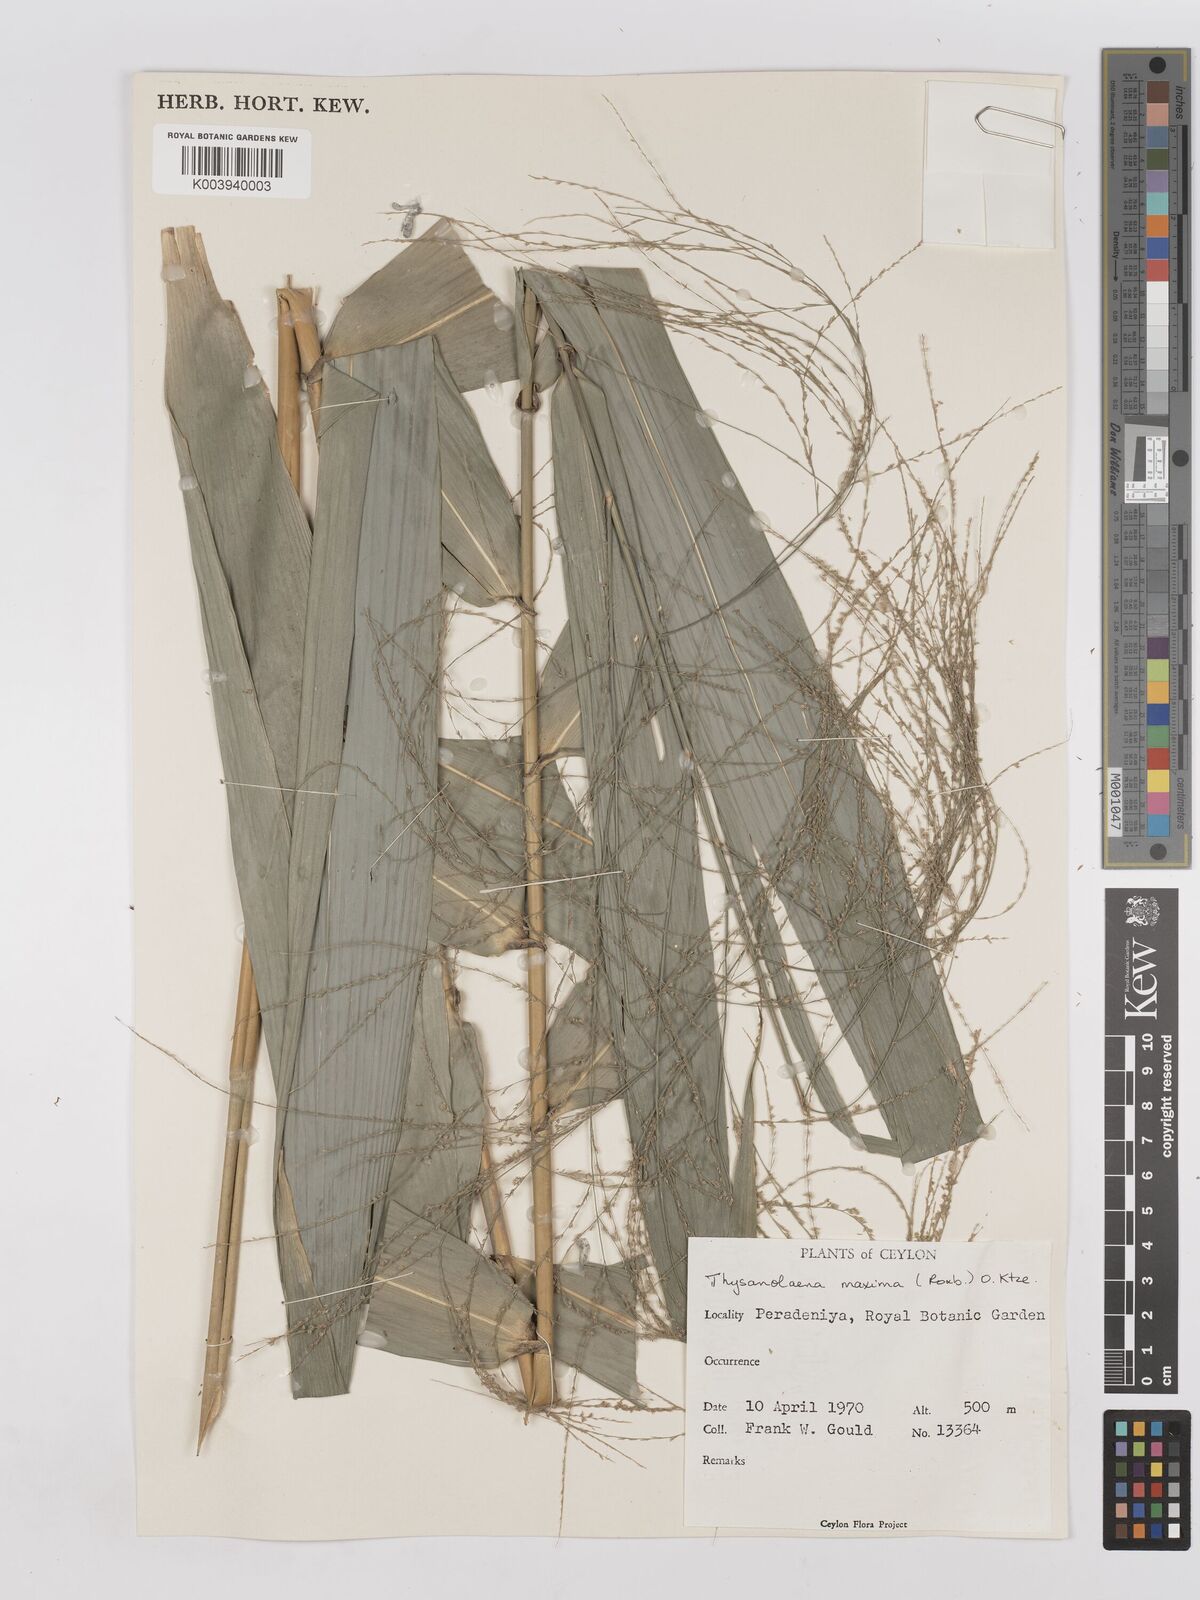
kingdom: Plantae
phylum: Tracheophyta
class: Liliopsida
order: Poales
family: Poaceae
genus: Thysanolaena
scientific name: Thysanolaena latifolia
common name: Tiger grass
